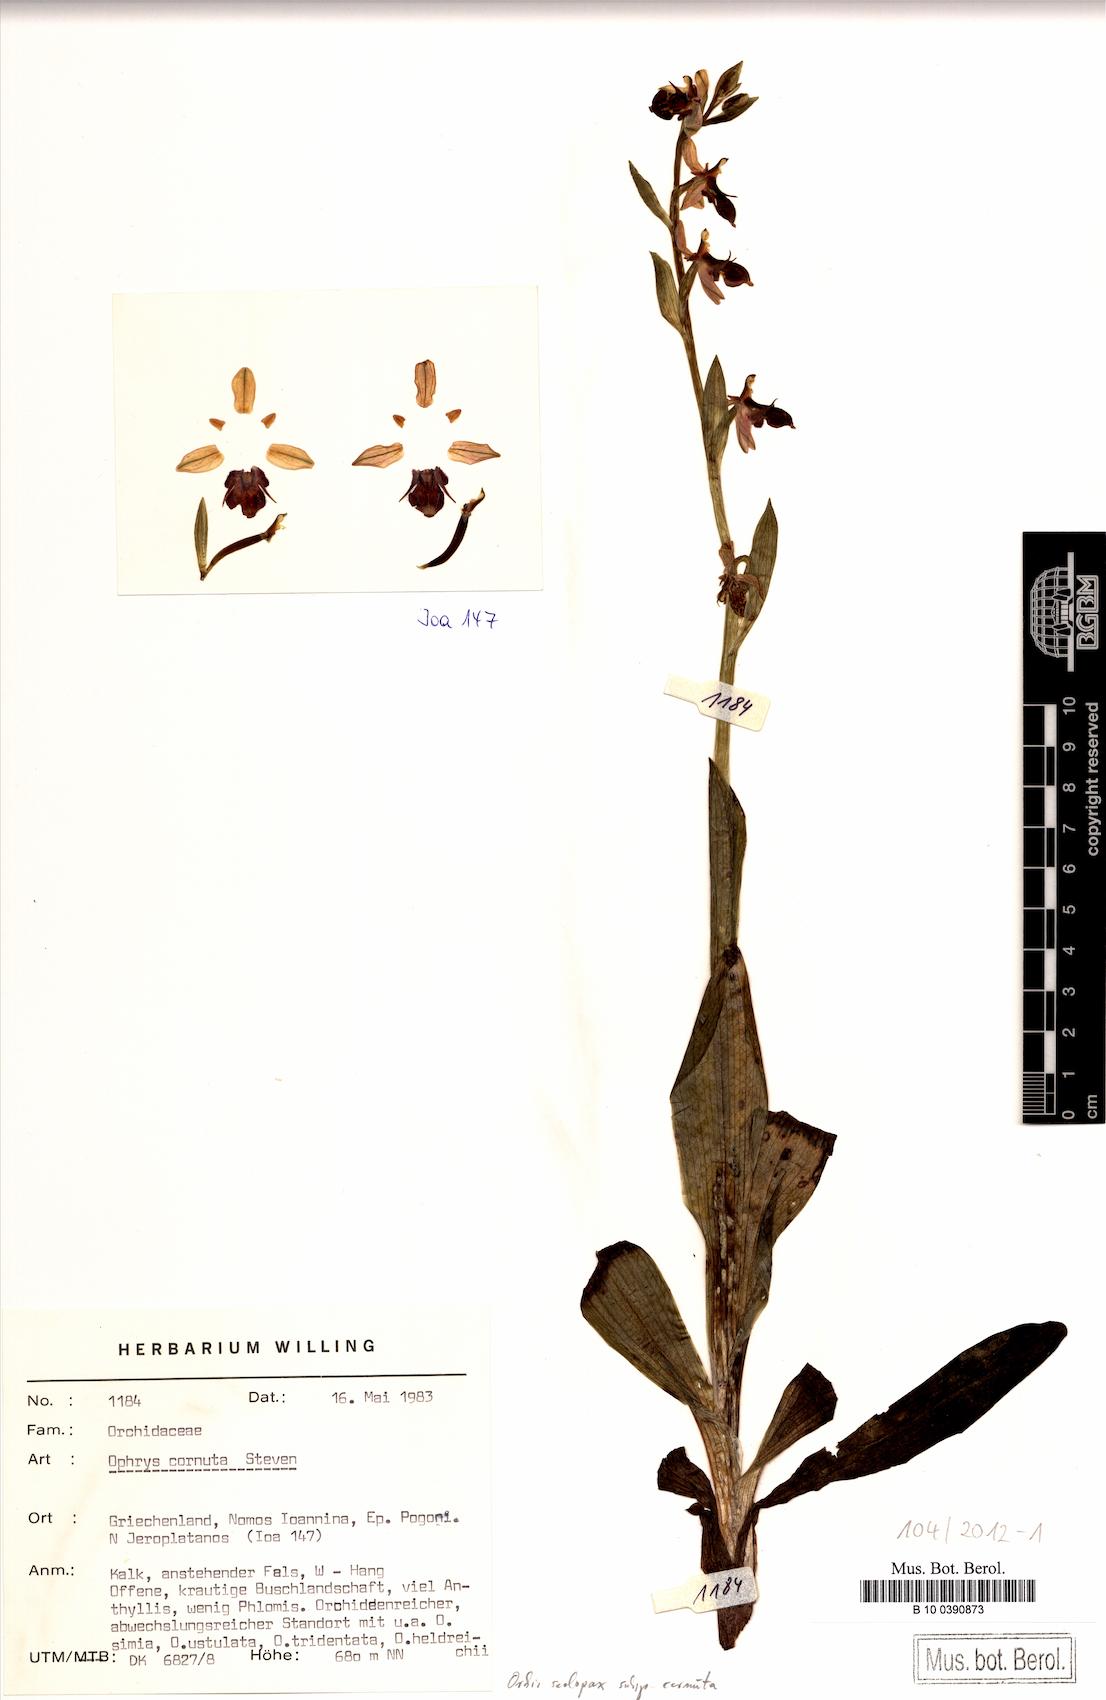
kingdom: Plantae
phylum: Tracheophyta
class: Liliopsida
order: Asparagales
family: Orchidaceae
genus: Ophrys
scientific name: Ophrys scolopax
